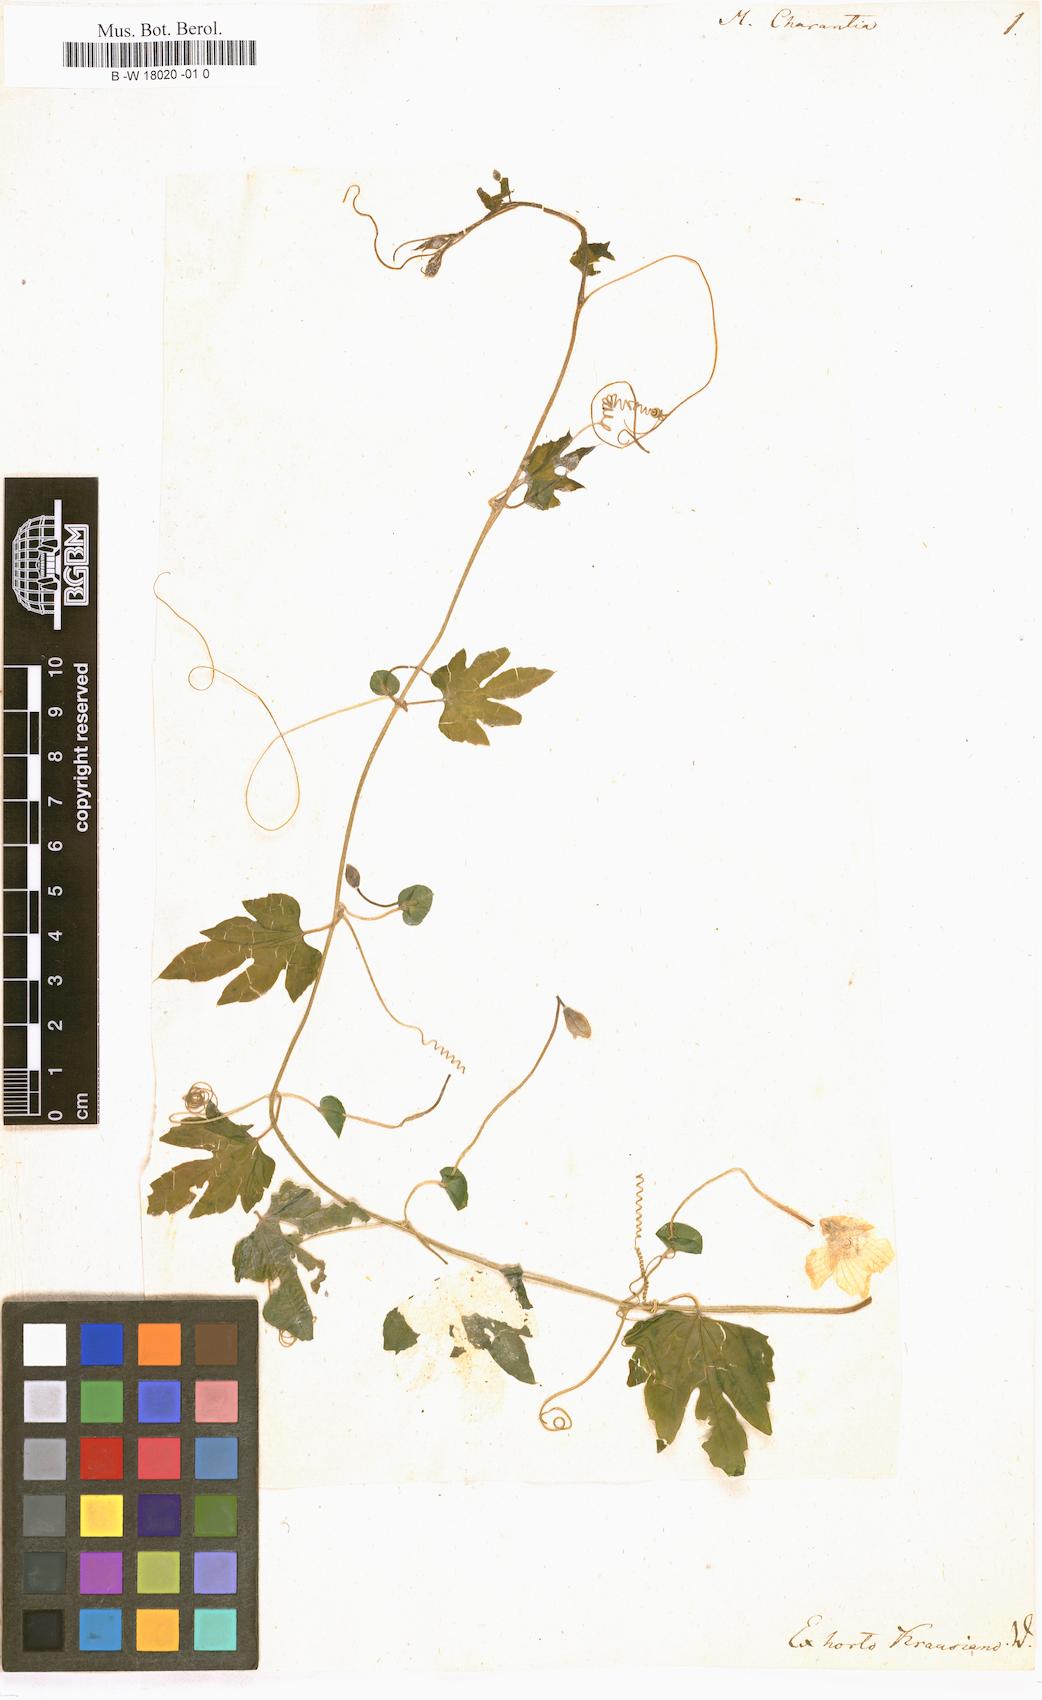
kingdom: Plantae
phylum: Tracheophyta
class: Magnoliopsida
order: Cucurbitales
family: Cucurbitaceae
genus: Momordica
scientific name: Momordica charantia
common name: Balsampear
